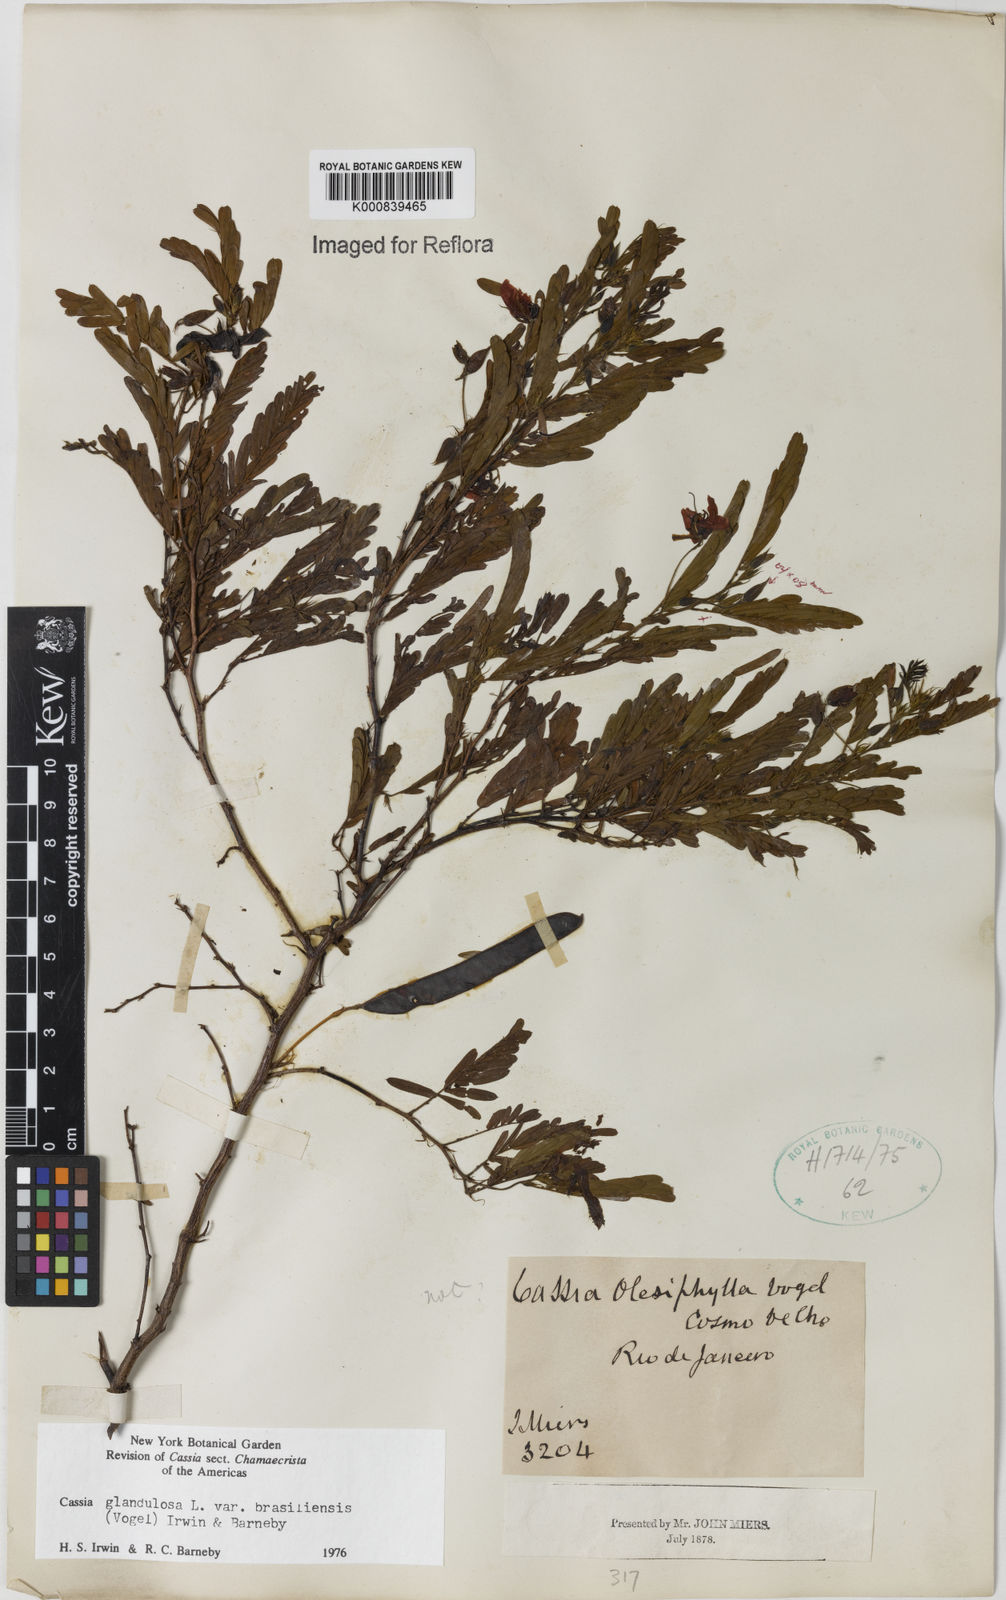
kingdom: Plantae
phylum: Tracheophyta
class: Magnoliopsida
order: Fabales
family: Fabaceae
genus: Chamaecrista
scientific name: Chamaecrista glandulosa
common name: Wild peas
